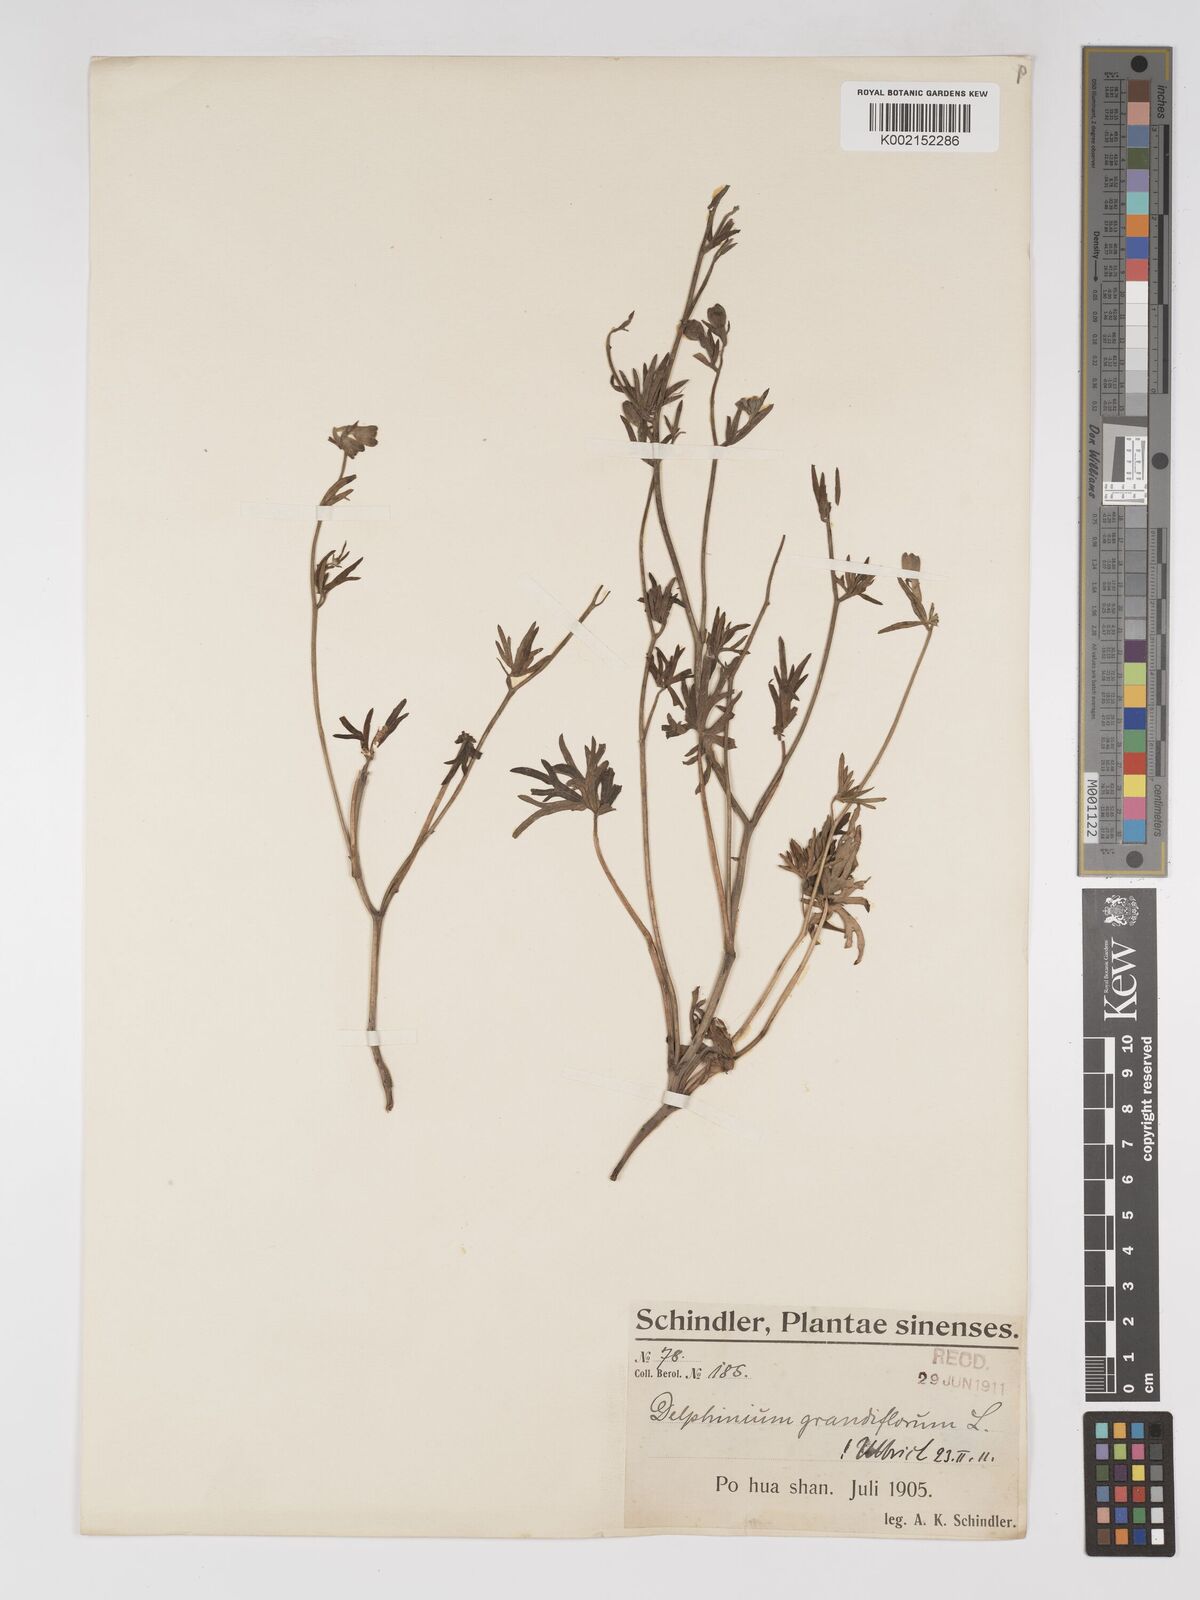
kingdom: Plantae
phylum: Tracheophyta
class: Magnoliopsida
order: Ranunculales
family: Ranunculaceae
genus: Delphinium
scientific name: Delphinium grandiflorum
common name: Siberian larkspur
